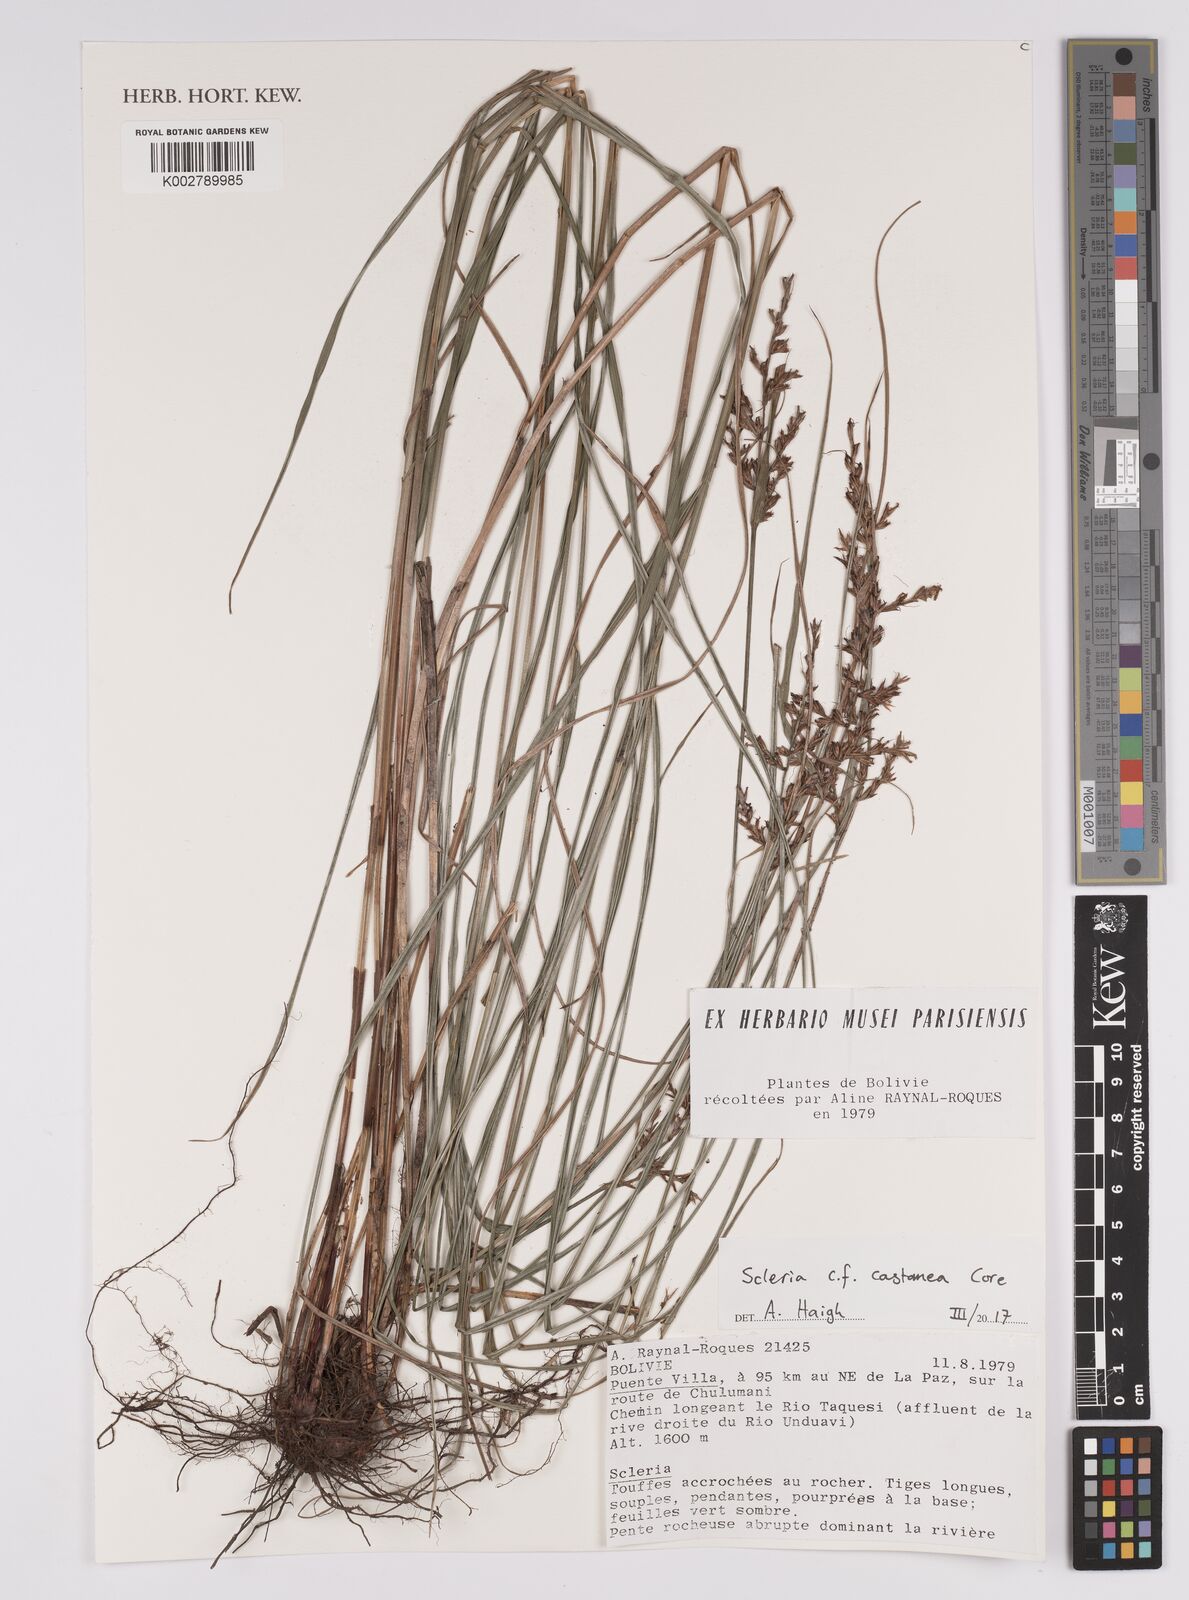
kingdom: Plantae
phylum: Tracheophyta
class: Liliopsida
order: Poales
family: Cyperaceae
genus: Scleria
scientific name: Scleria castanea
